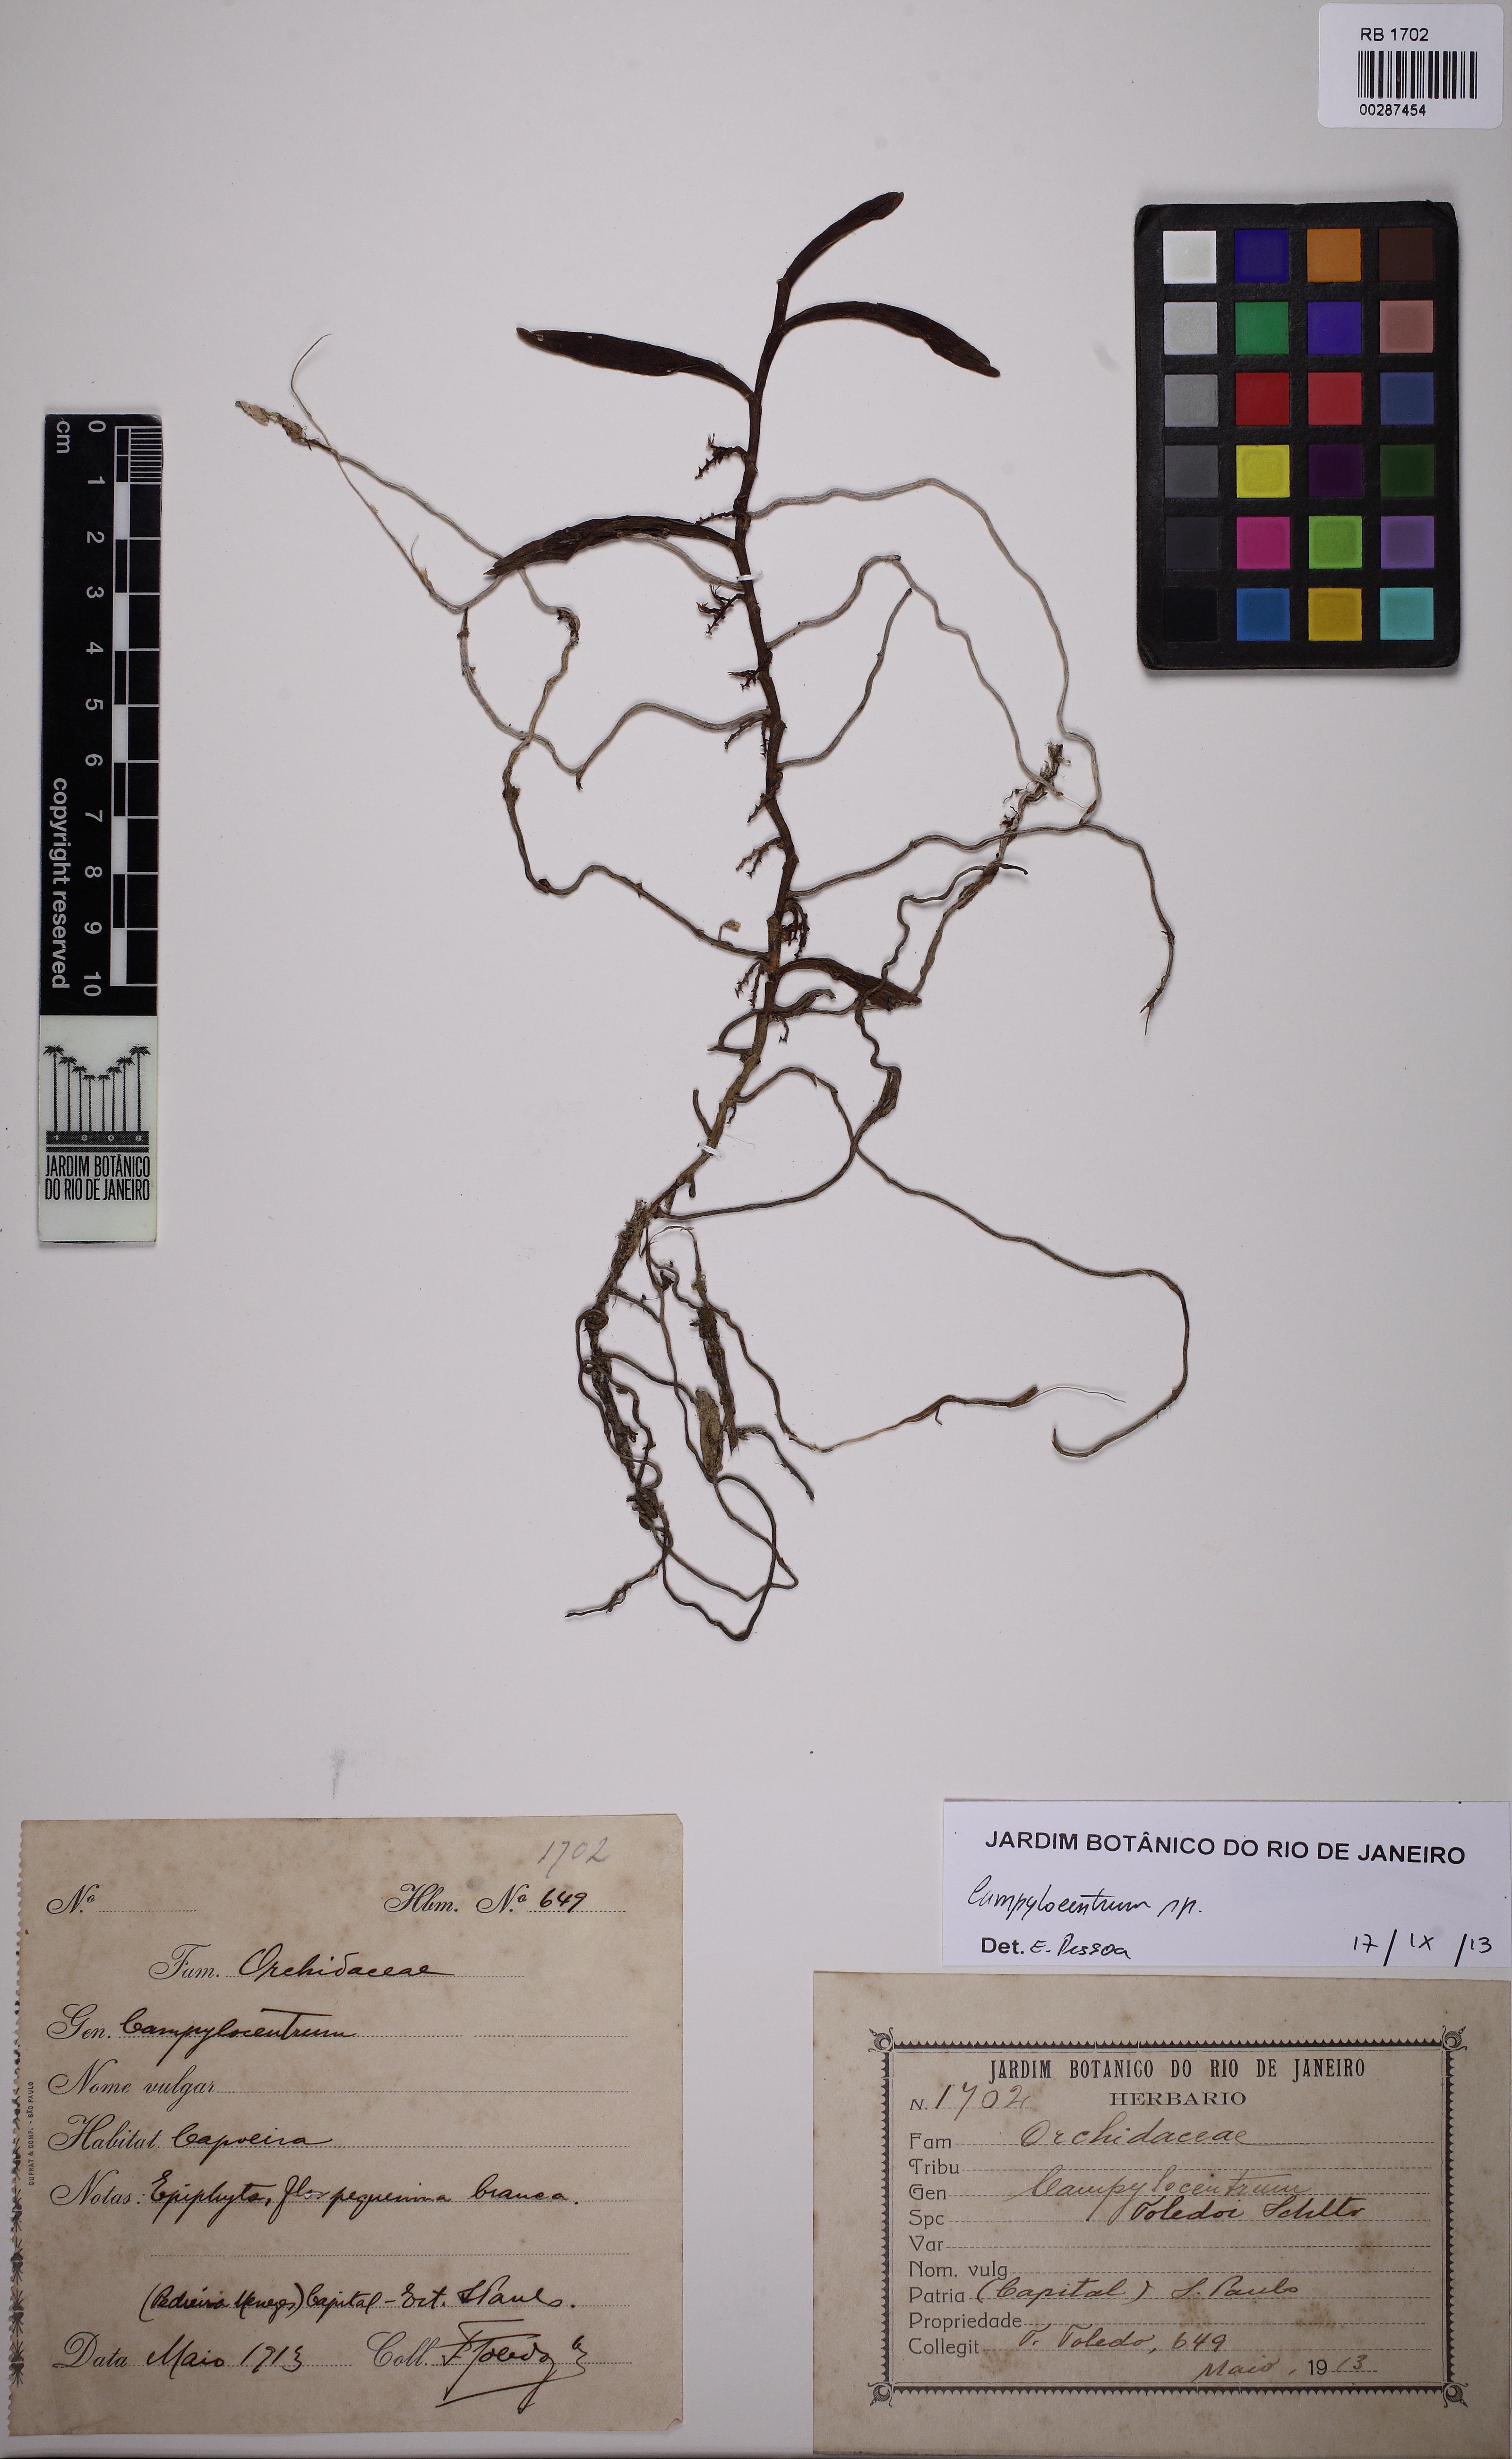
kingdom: Plantae
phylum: Tracheophyta
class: Liliopsida
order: Asparagales
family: Orchidaceae
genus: Campylocentrum
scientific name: Campylocentrum spannagelii
